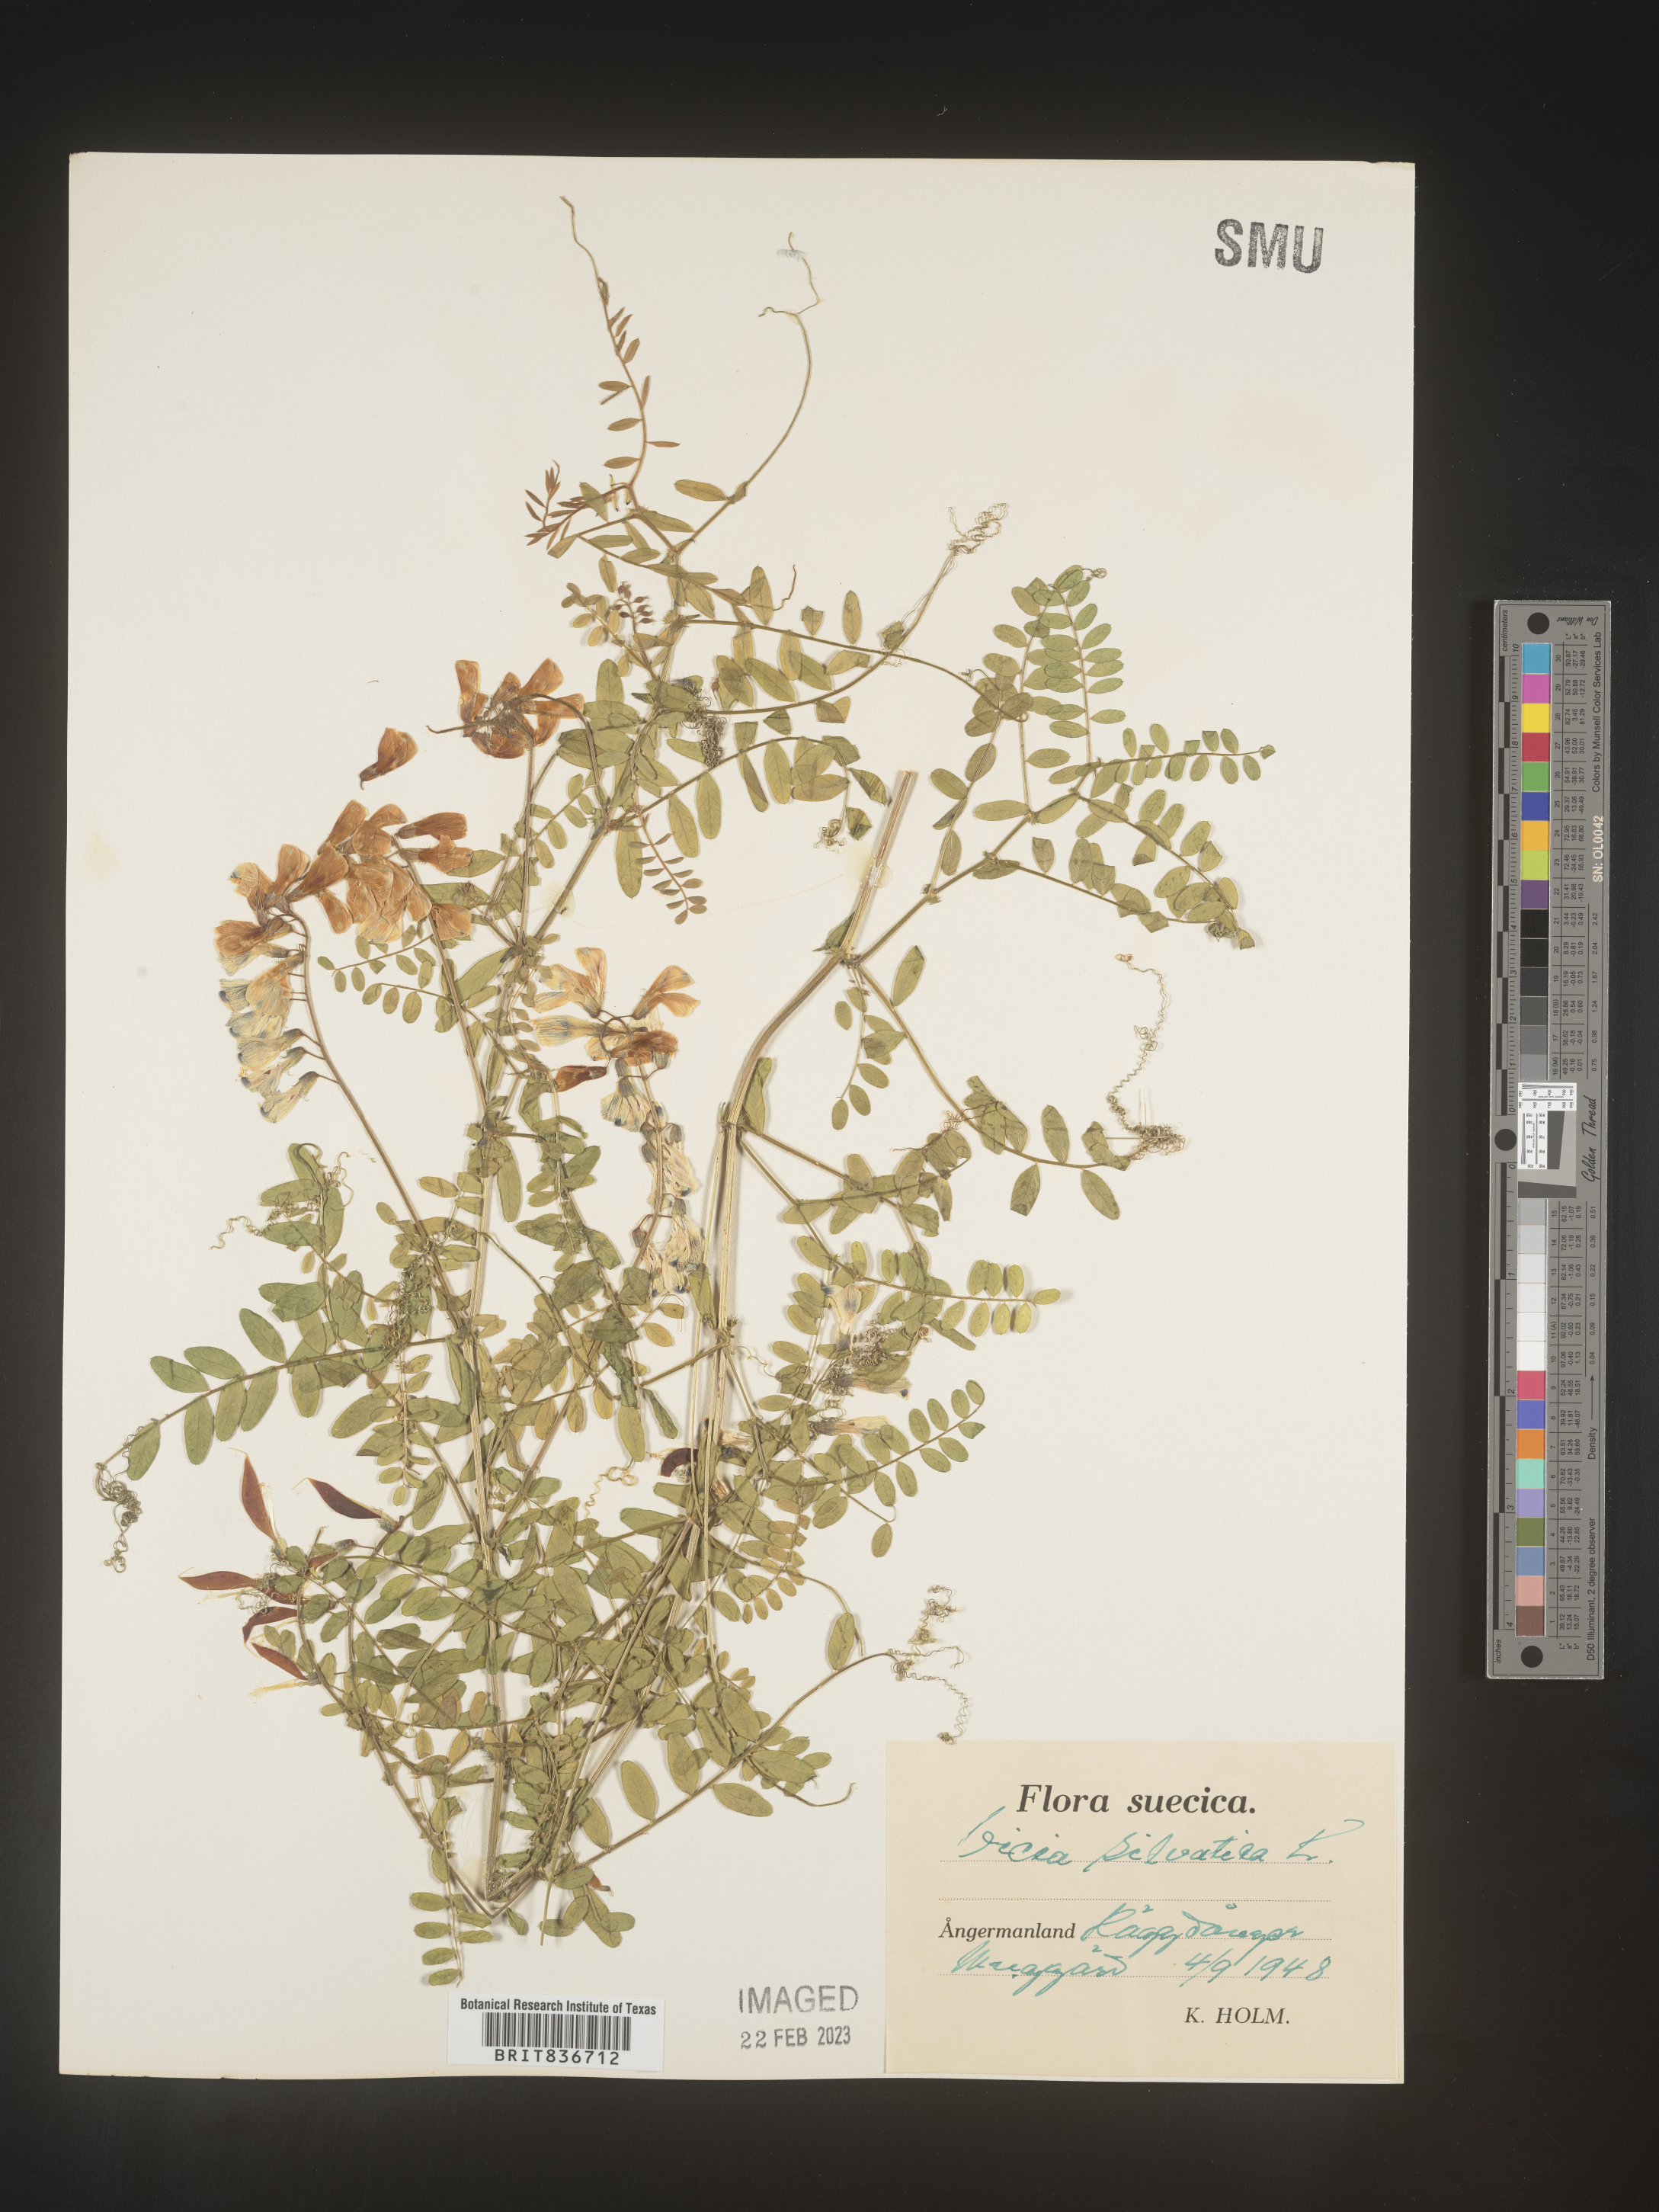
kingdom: Plantae
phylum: Tracheophyta
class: Magnoliopsida
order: Fabales
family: Fabaceae
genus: Vicia
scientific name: Vicia sylvatica
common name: Wood vetch
